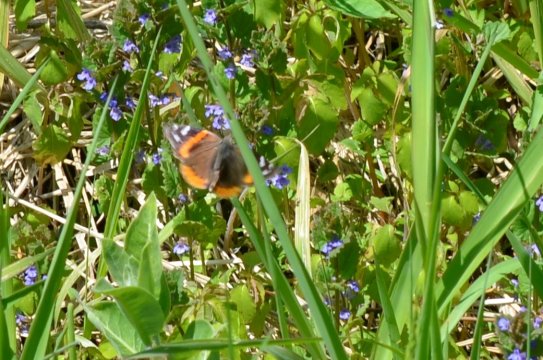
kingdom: Animalia
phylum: Arthropoda
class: Insecta
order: Lepidoptera
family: Nymphalidae
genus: Vanessa
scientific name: Vanessa atalanta
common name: Red Admiral
